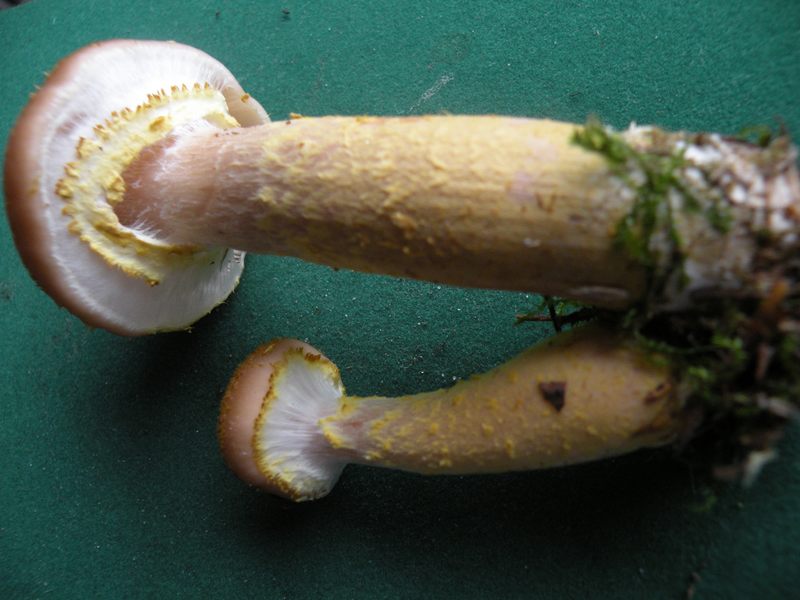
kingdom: Fungi
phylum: Basidiomycota
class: Agaricomycetes
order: Agaricales
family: Physalacriaceae
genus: Armillaria
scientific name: Armillaria lutea
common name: køllestokket honningsvamp
